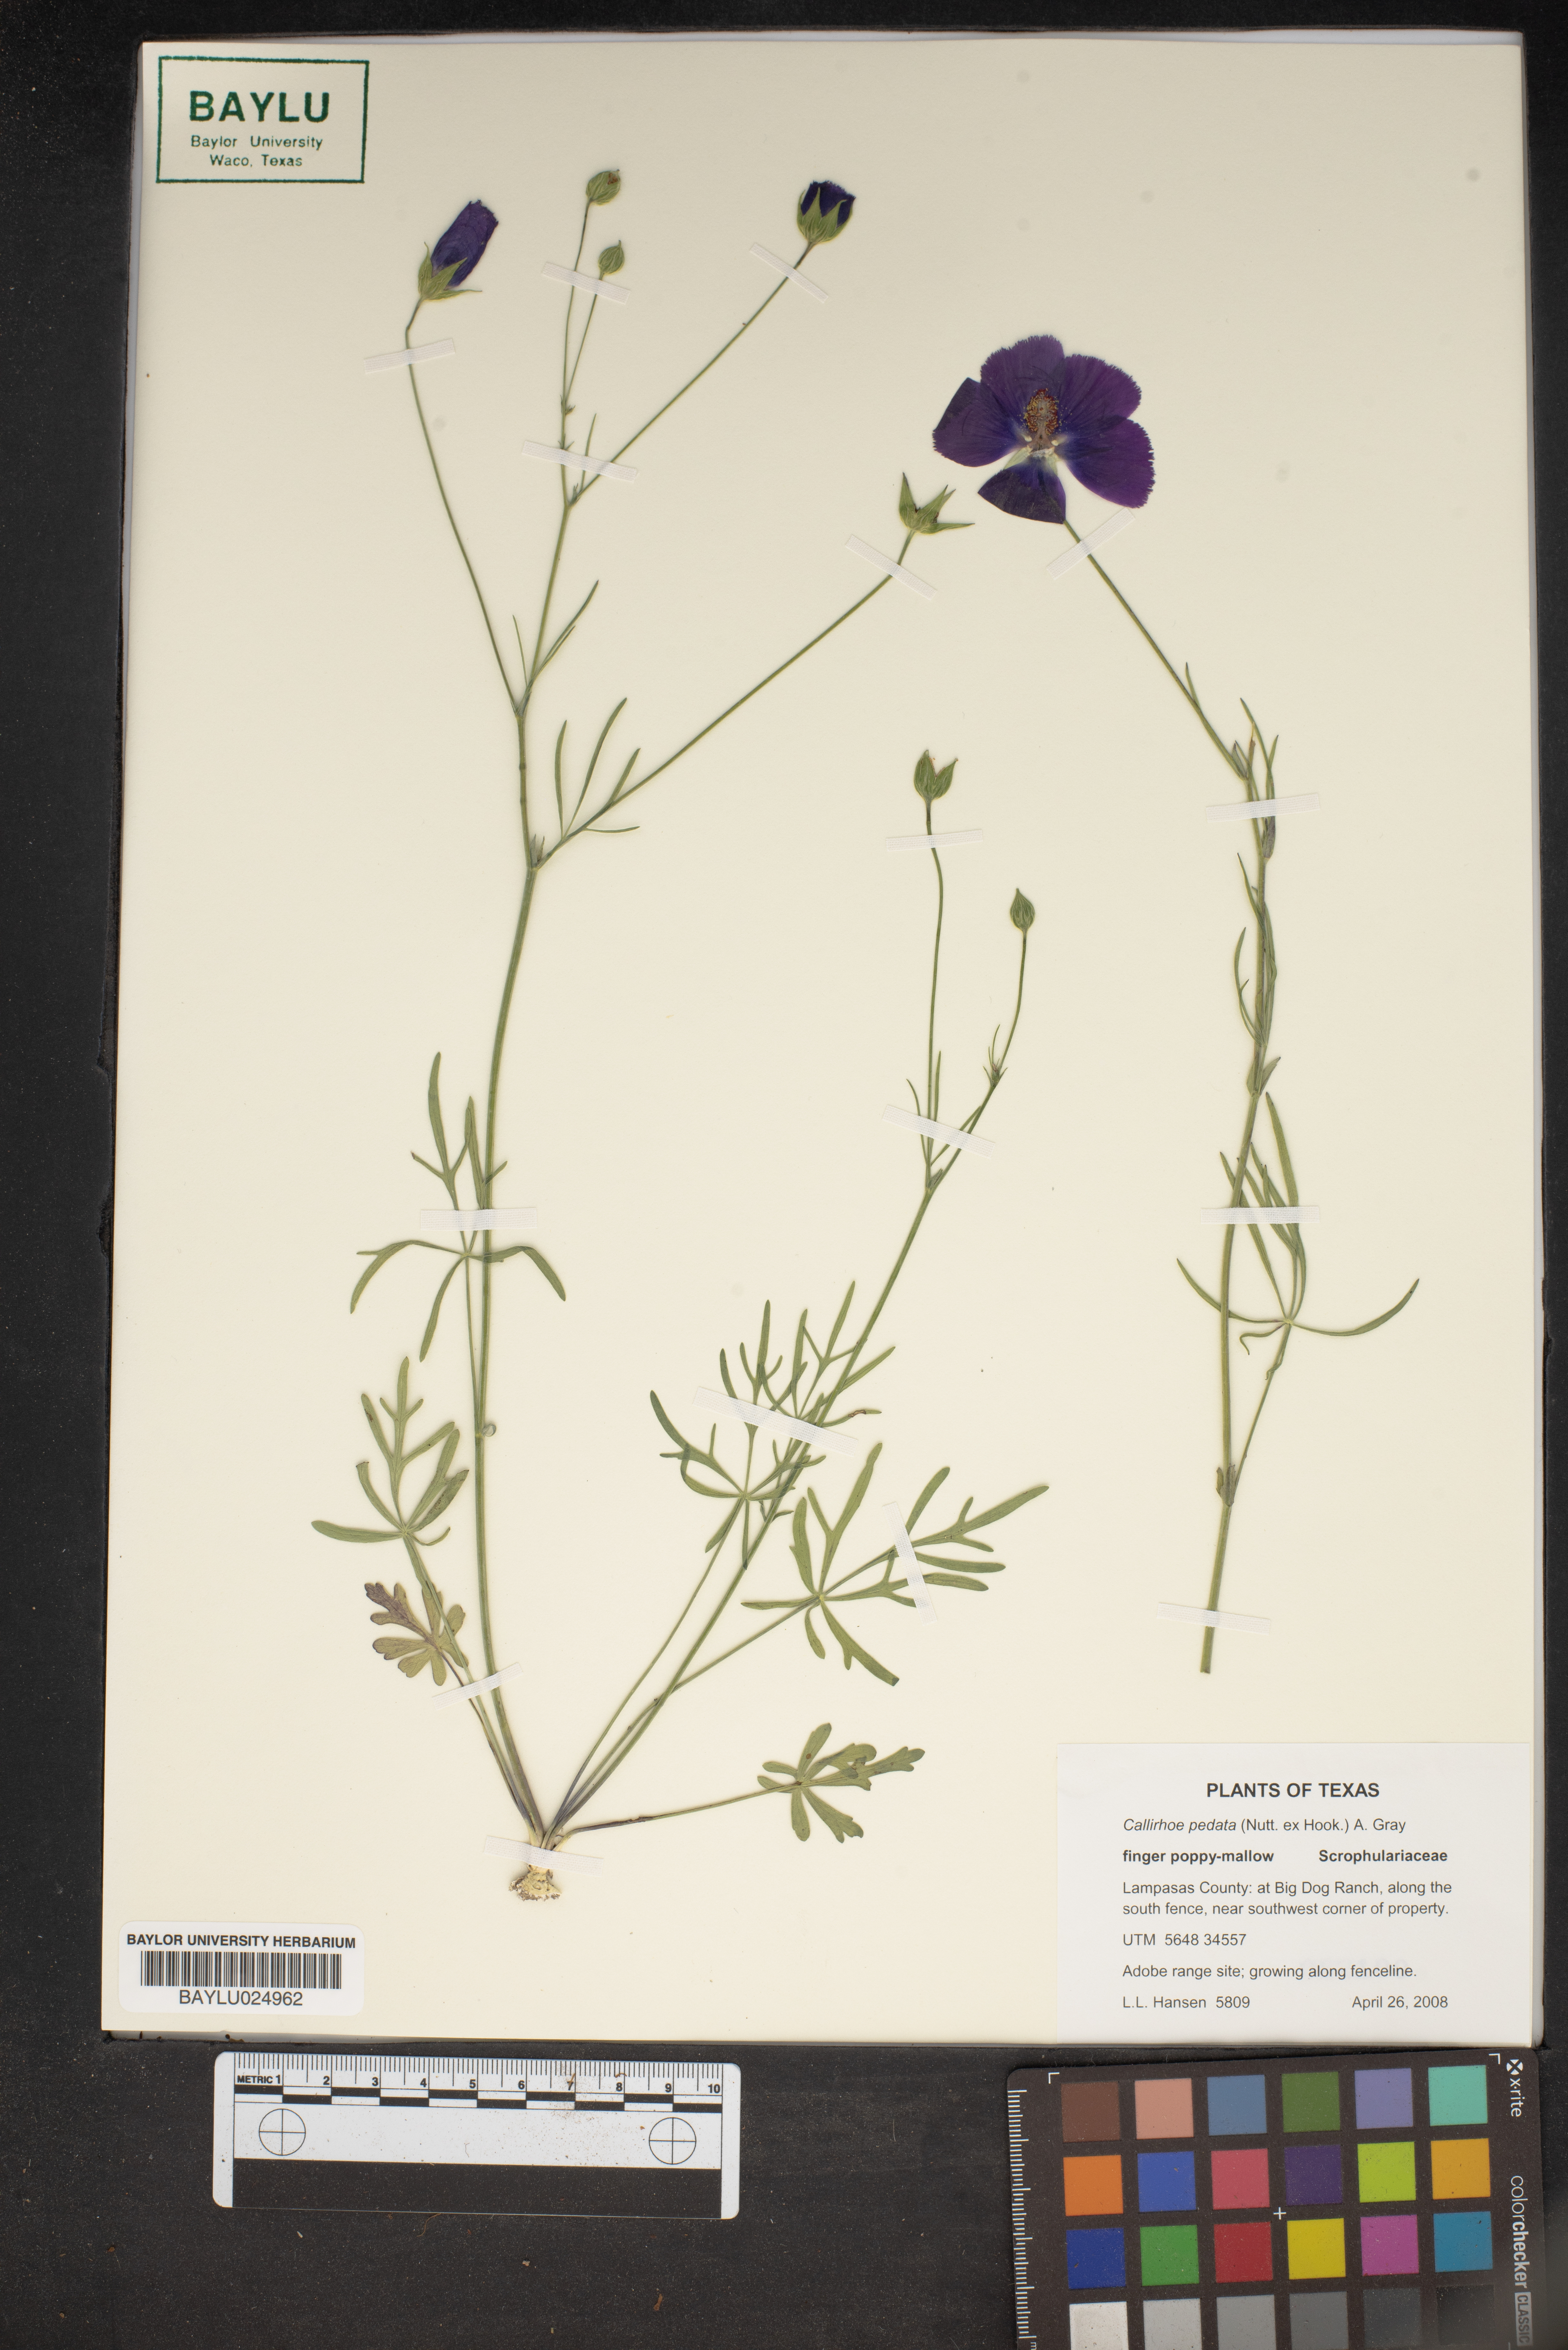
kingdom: Plantae
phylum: Tracheophyta
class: Magnoliopsida
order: Malvales
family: Malvaceae
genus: Callirhoe
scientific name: Callirhoe pedata
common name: Finger poppy-mallow
